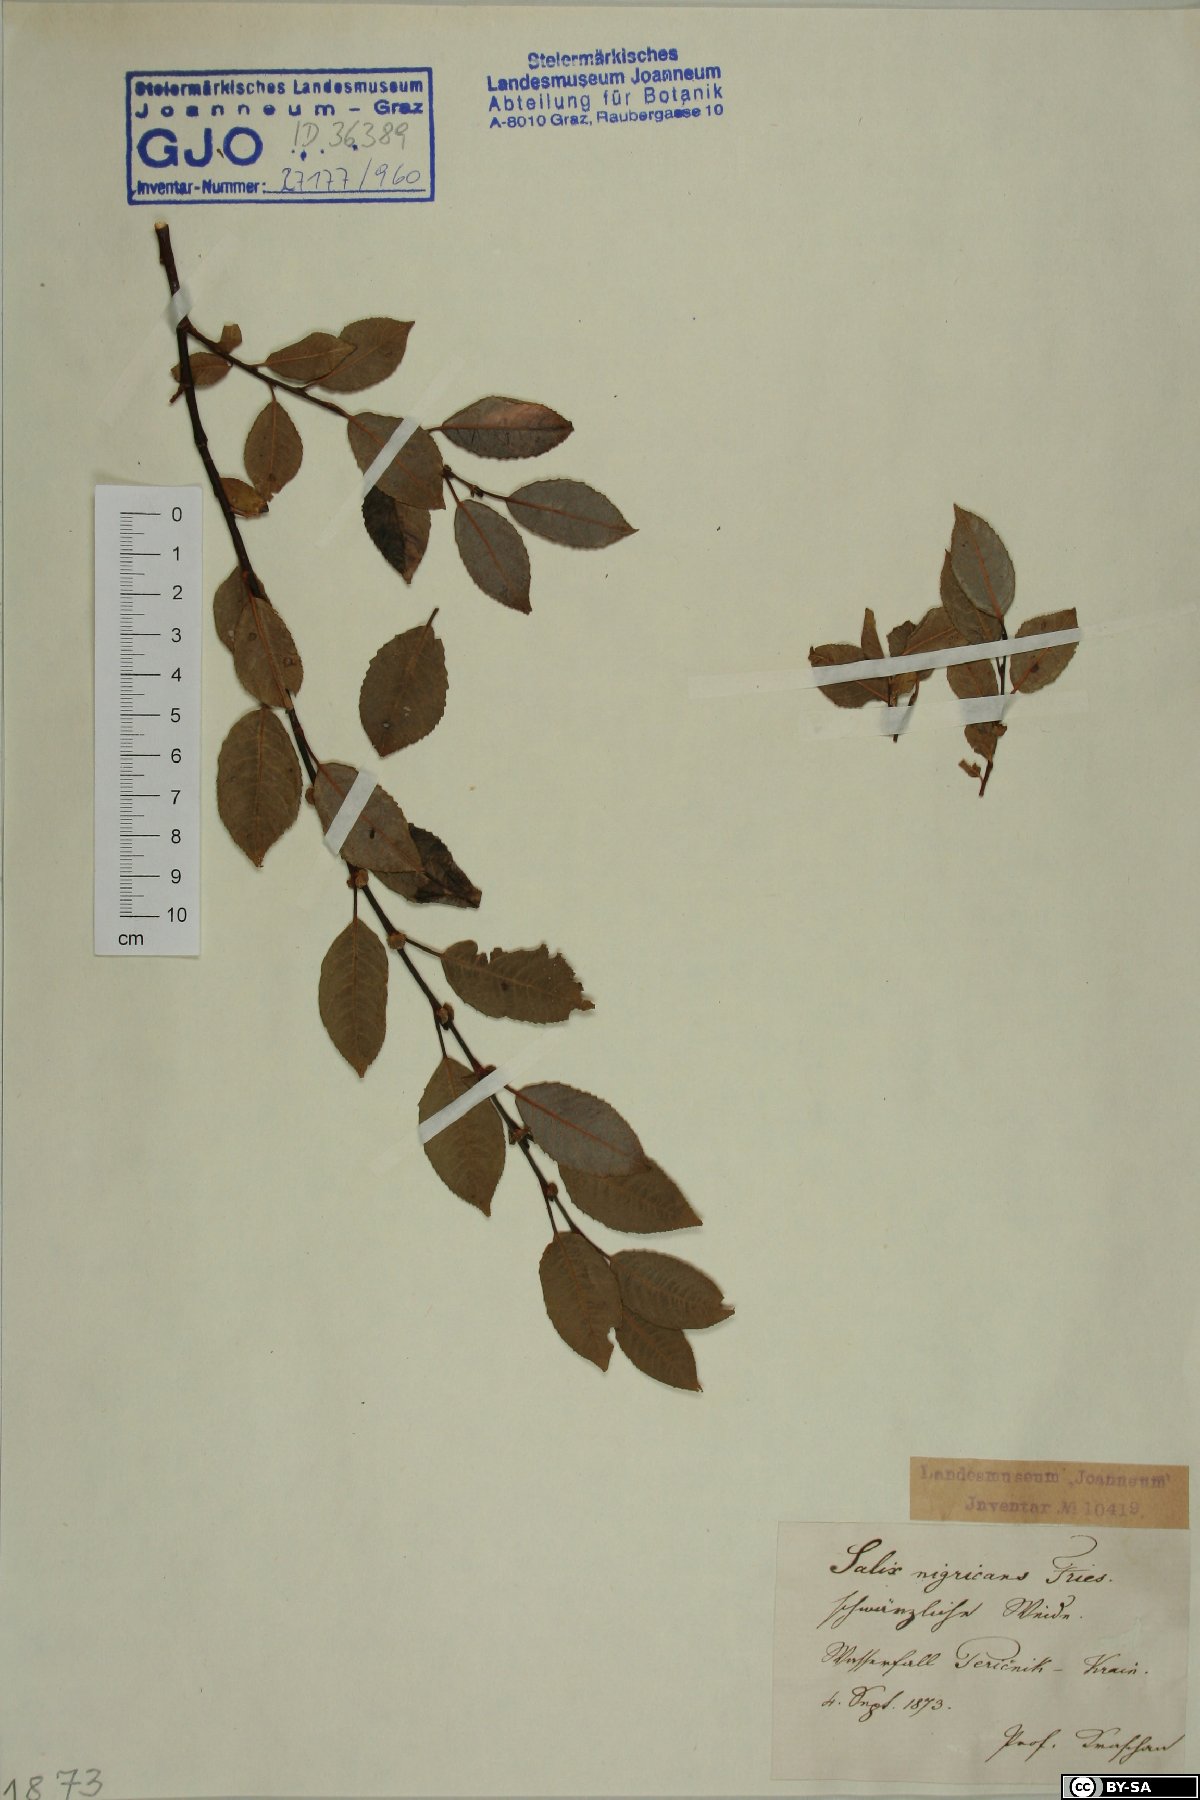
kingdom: Plantae
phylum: Tracheophyta
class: Magnoliopsida
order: Malpighiales
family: Salicaceae
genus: Salix
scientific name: Salix myrsinifolia
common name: Dark-leaved willow
